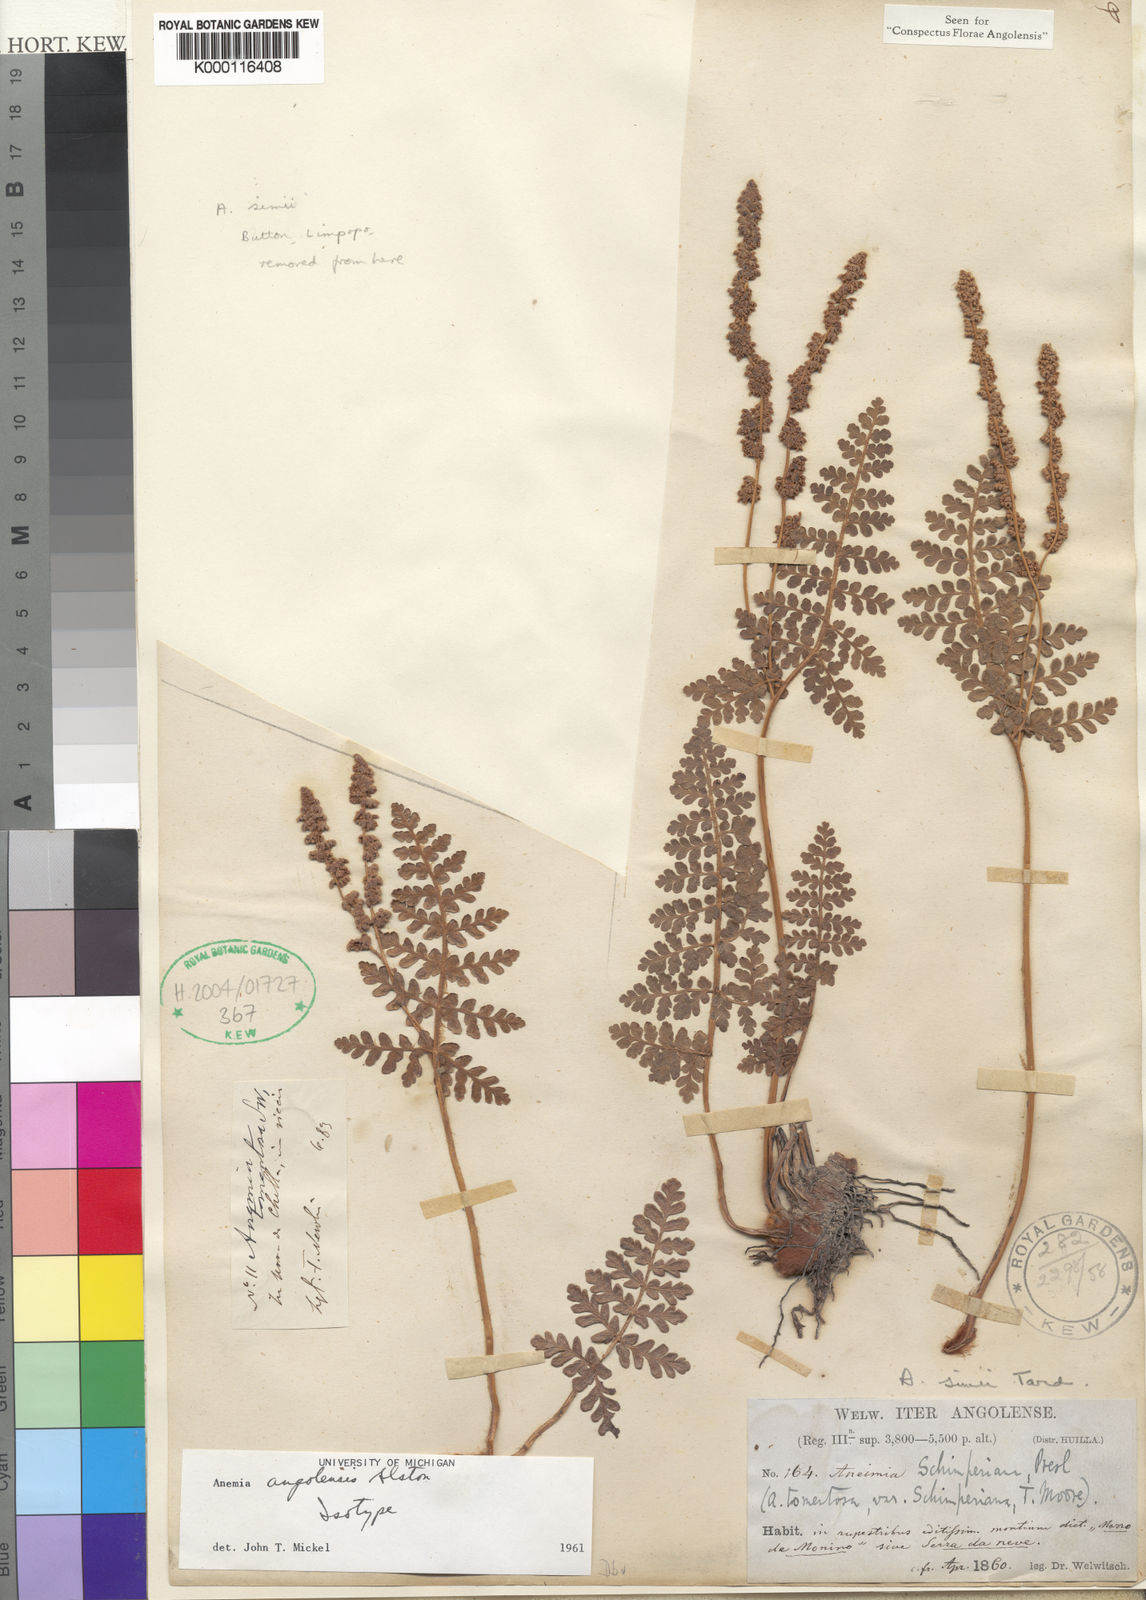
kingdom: Plantae
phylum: Tracheophyta
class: Polypodiopsida
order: Schizaeales
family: Anemiaceae
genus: Anemia
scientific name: Anemia simii
